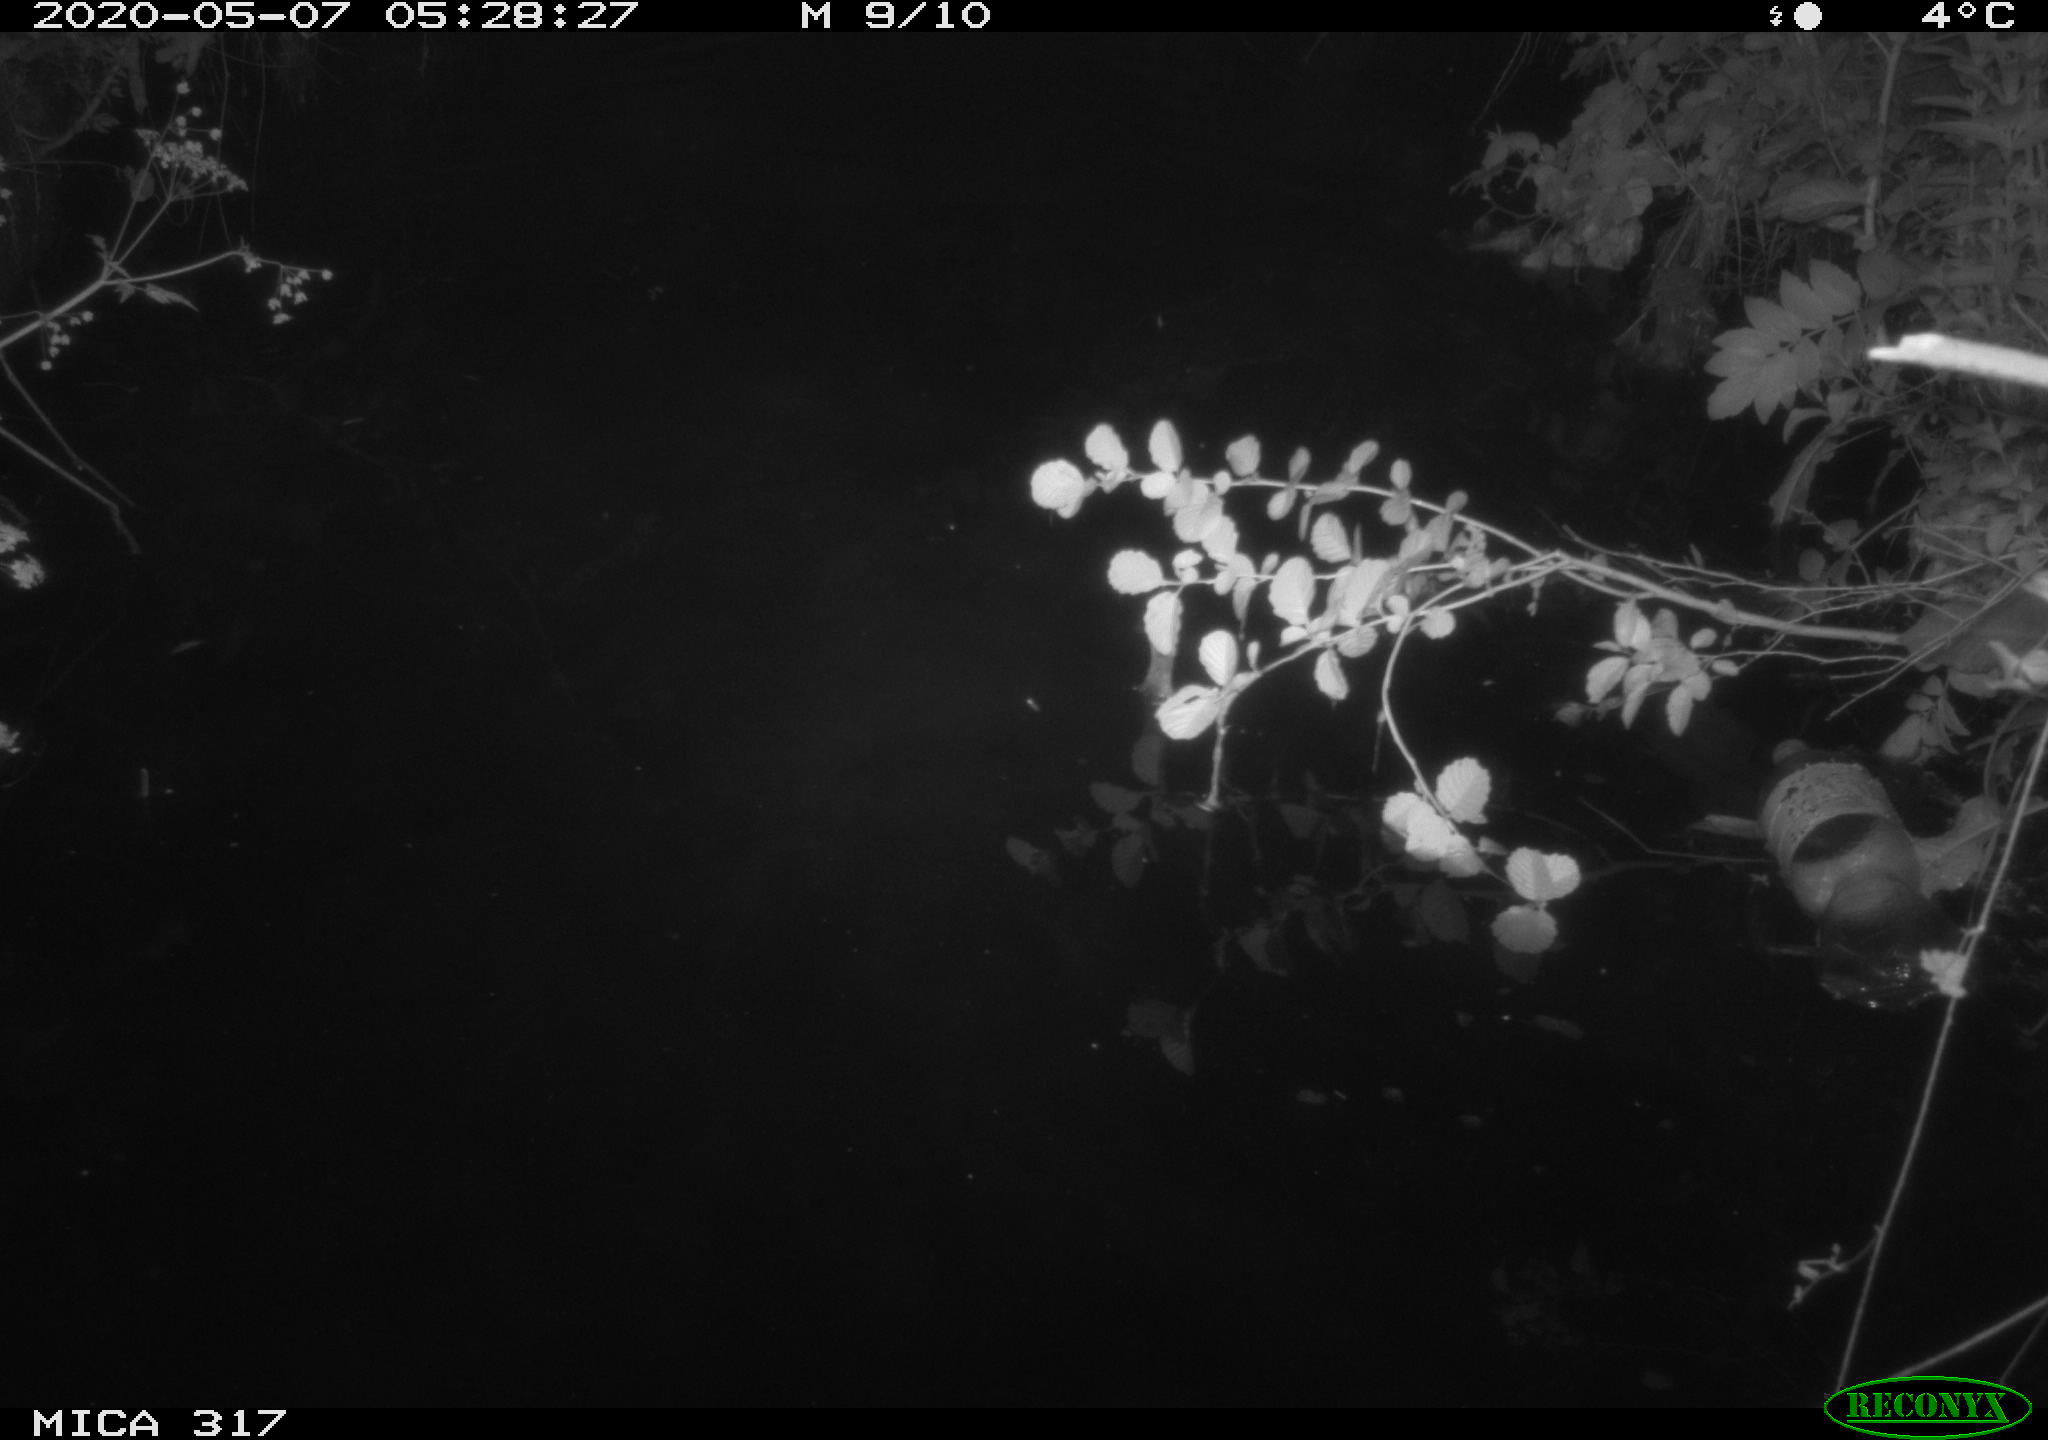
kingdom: Animalia
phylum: Chordata
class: Aves
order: Anseriformes
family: Anatidae
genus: Anas
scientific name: Anas platyrhynchos
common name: Mallard
